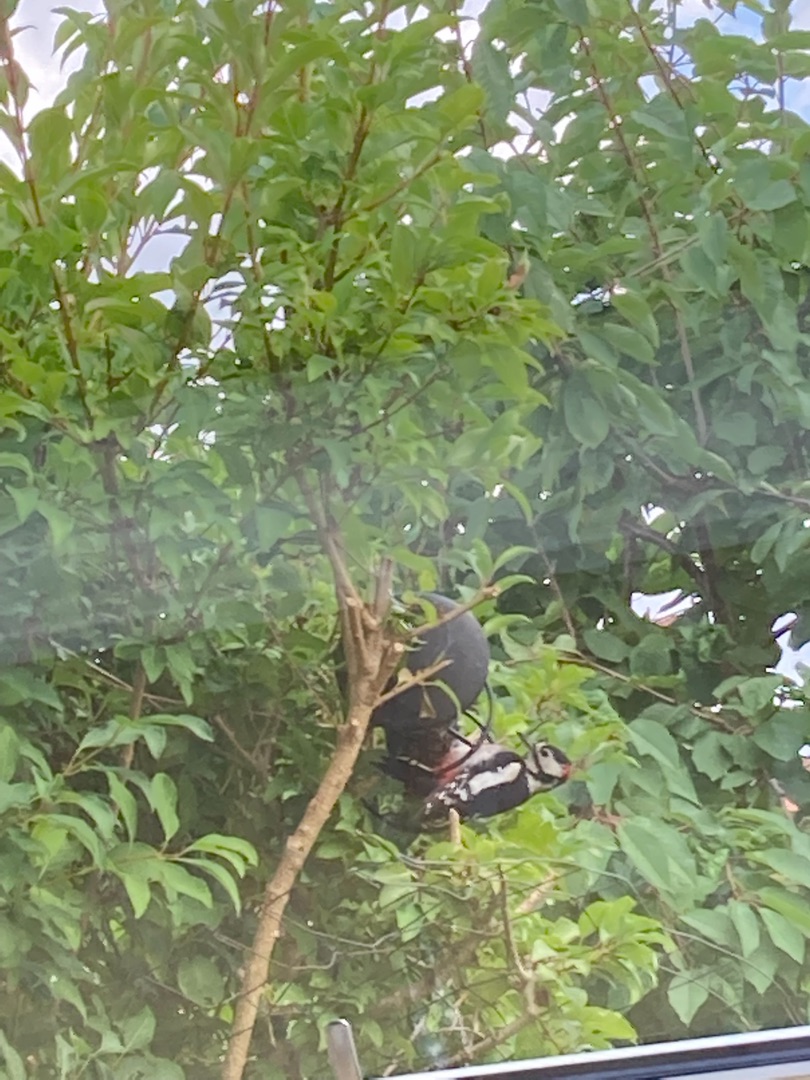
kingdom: Animalia
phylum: Chordata
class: Aves
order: Piciformes
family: Picidae
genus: Dendrocopos
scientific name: Dendrocopos major
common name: Stor flagspætte
